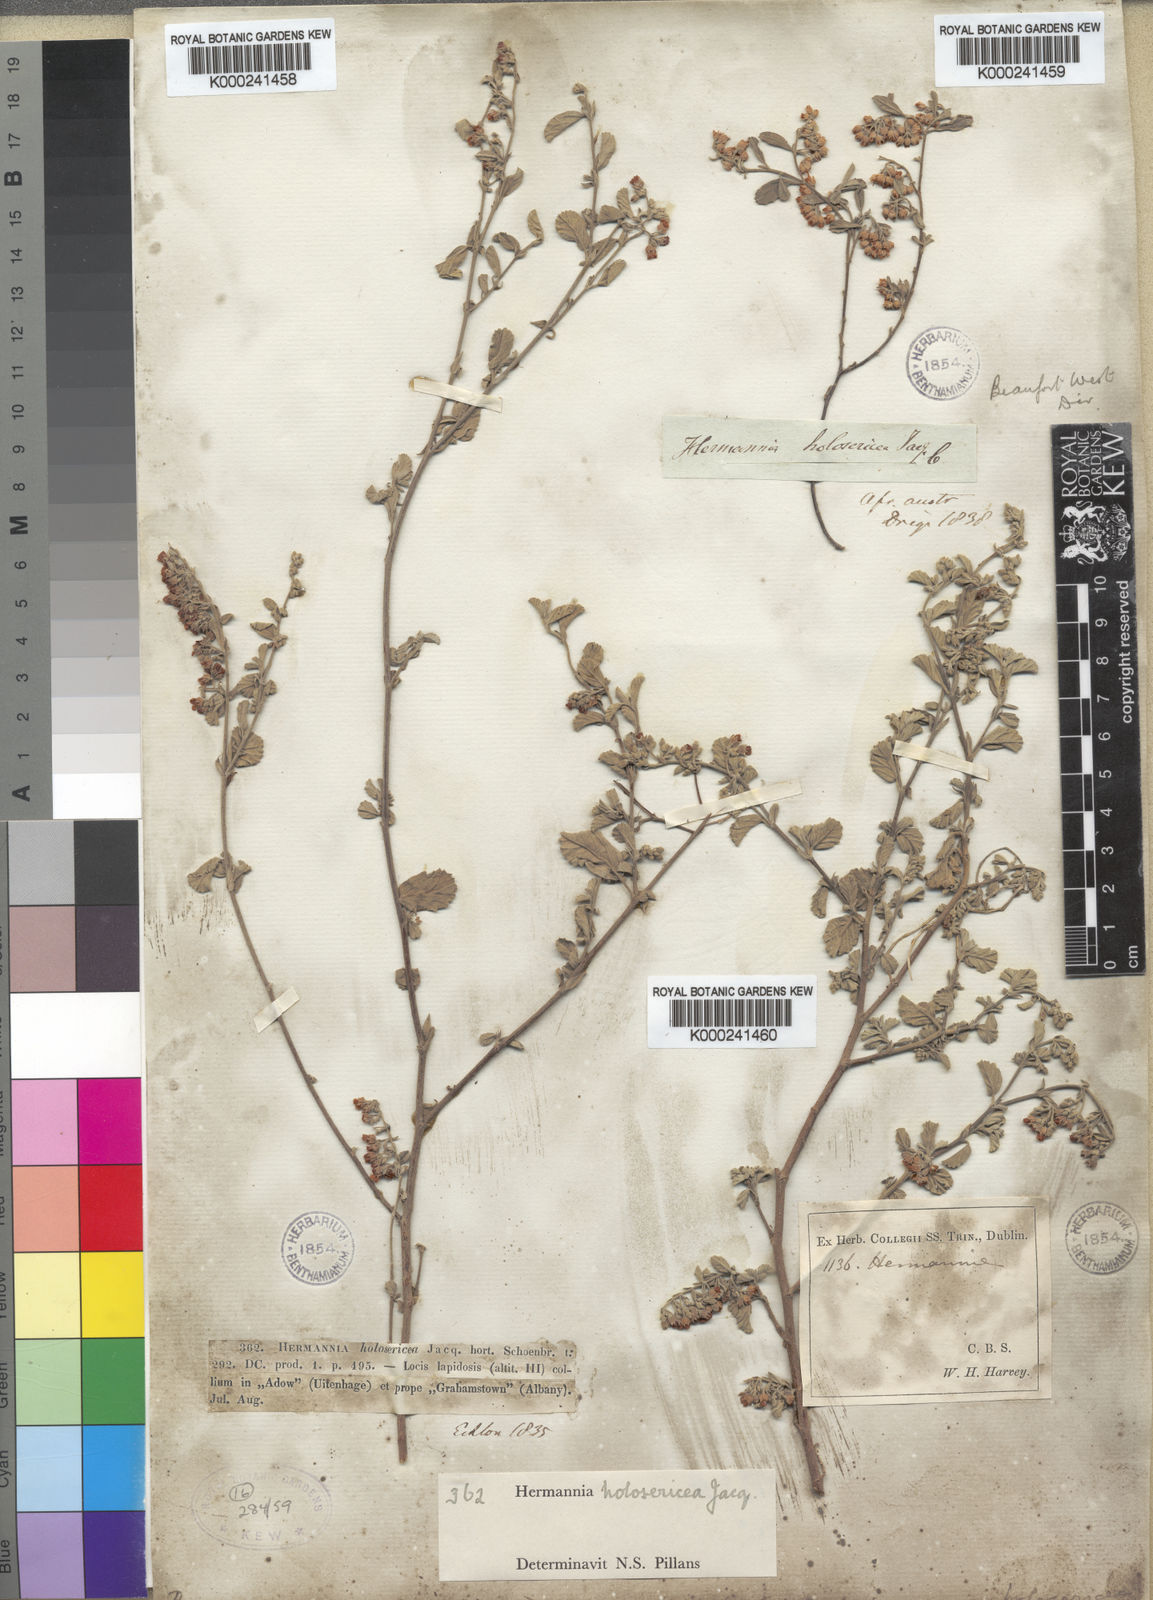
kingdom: Plantae
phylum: Tracheophyta
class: Magnoliopsida
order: Malvales
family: Malvaceae
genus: Hermannia
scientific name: Hermannia holosericea
